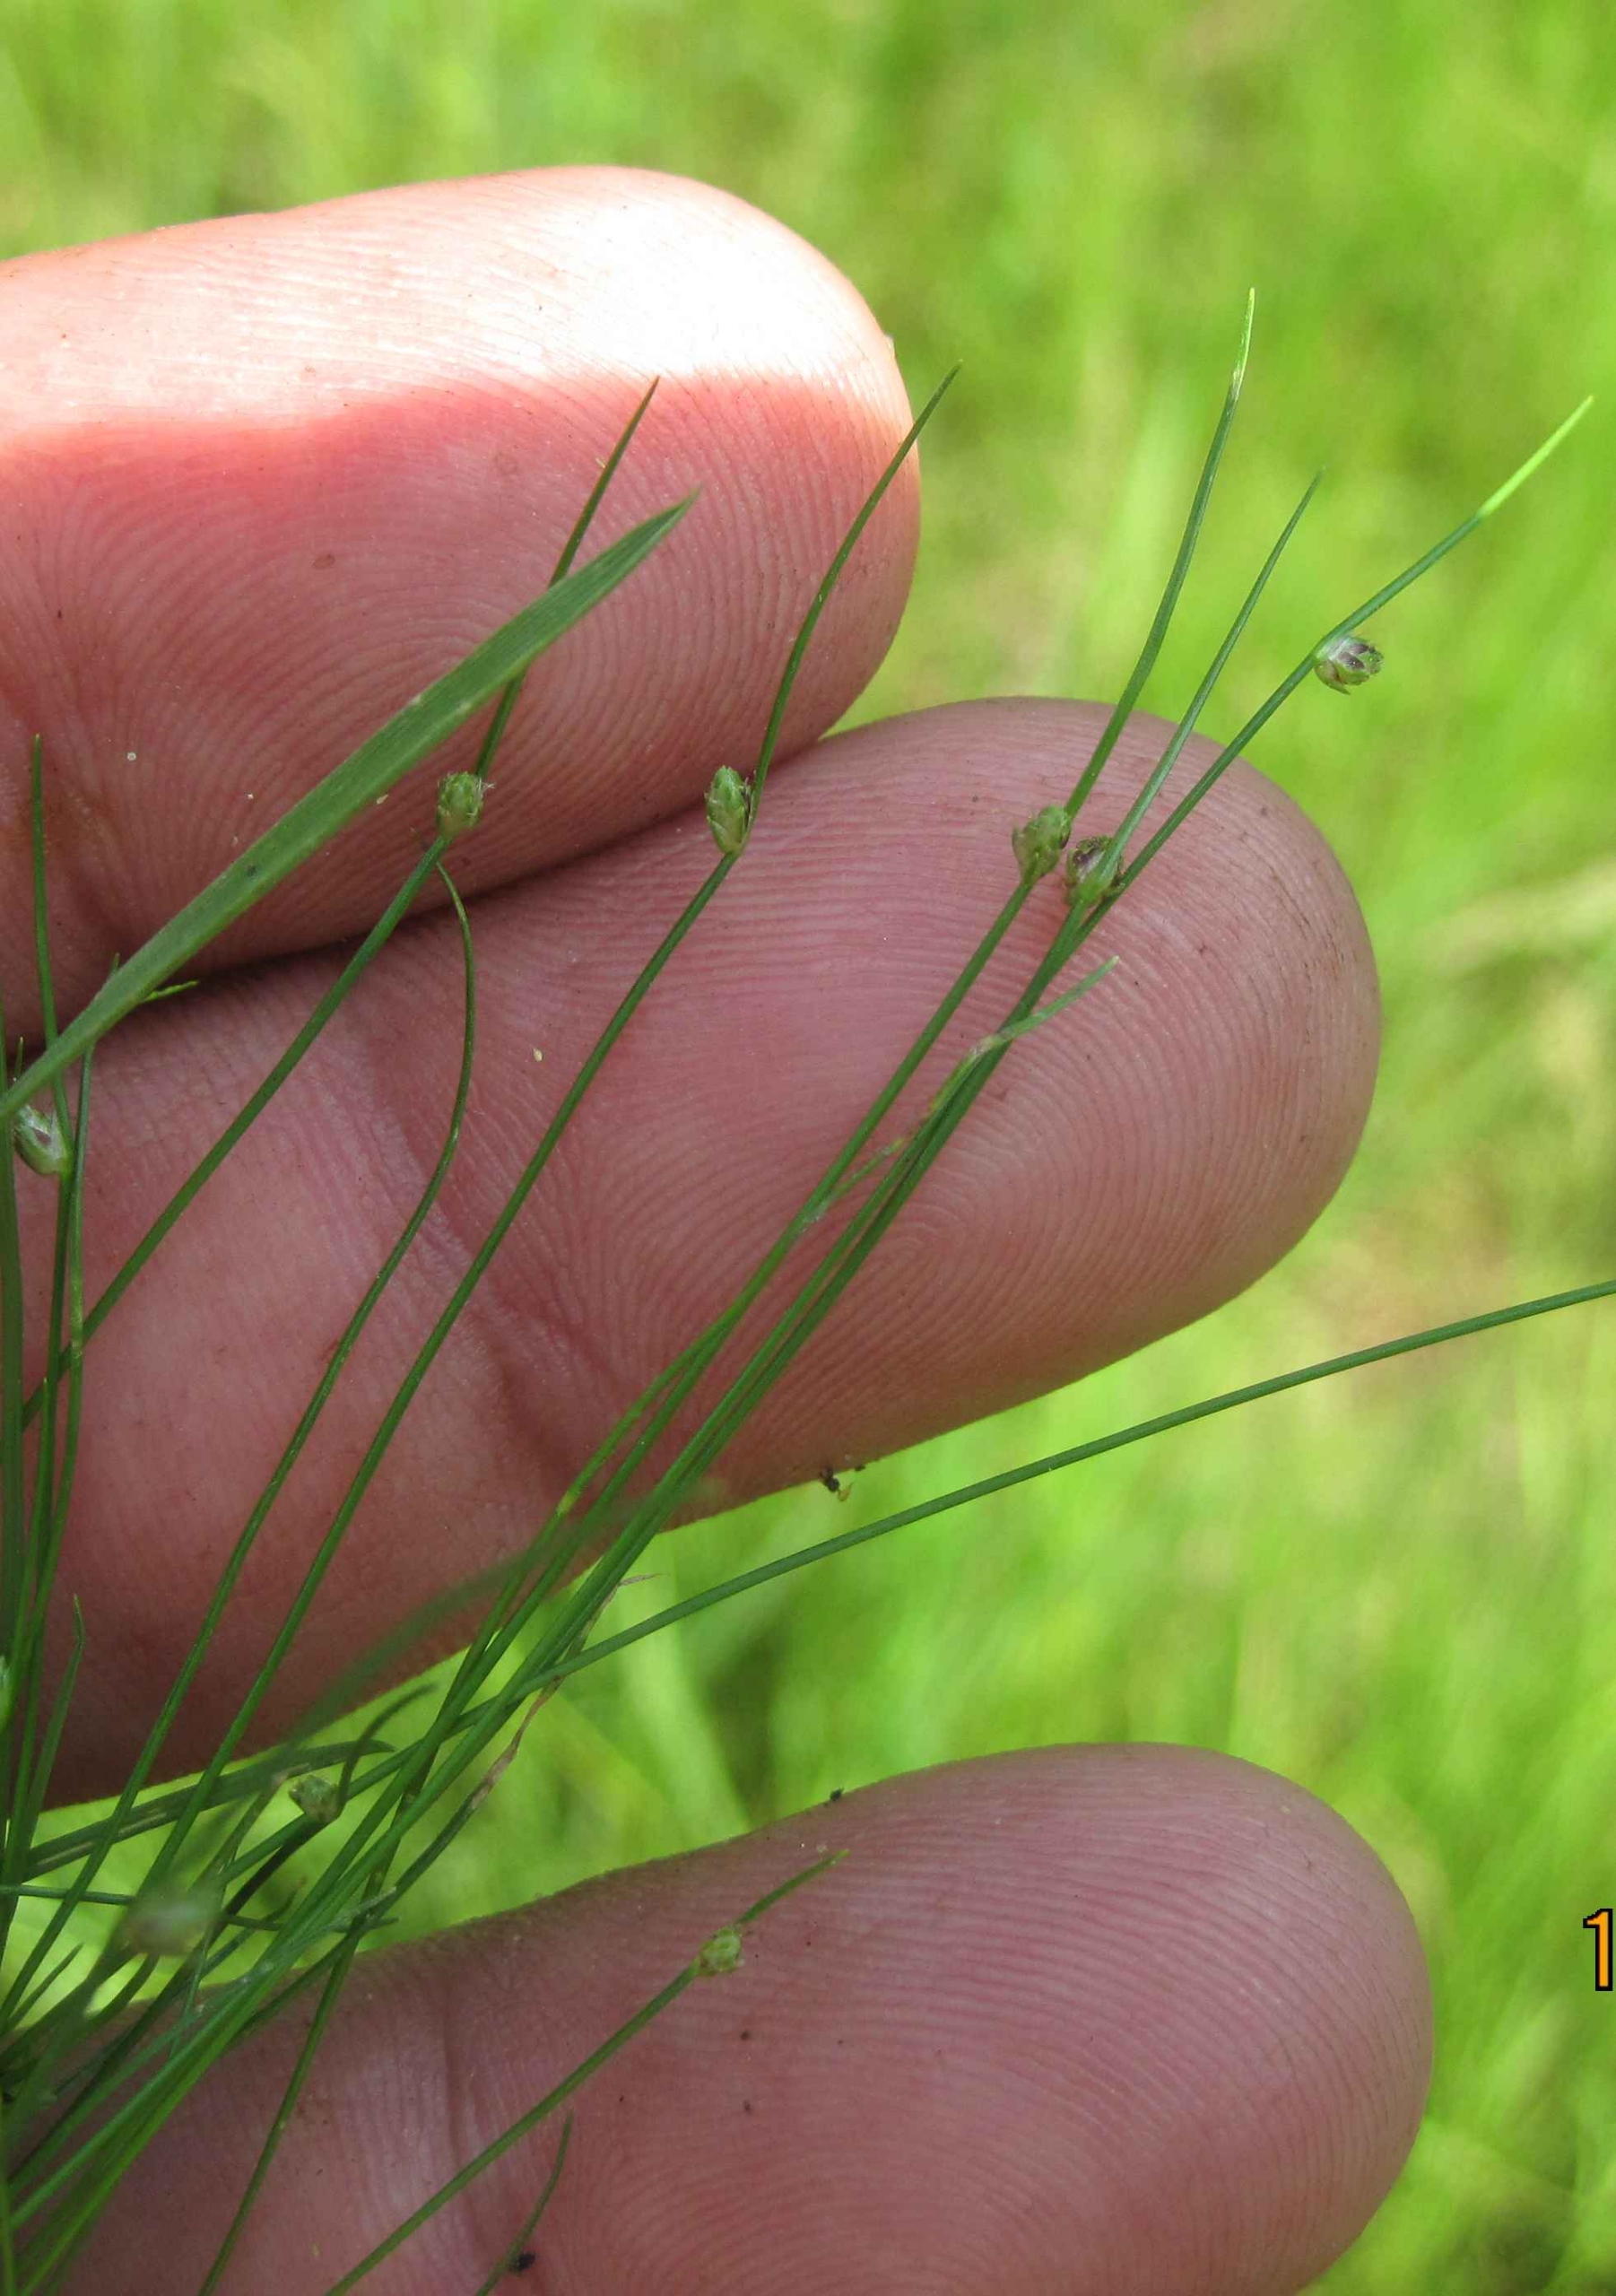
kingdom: Plantae
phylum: Tracheophyta
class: Liliopsida
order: Poales
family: Cyperaceae
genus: Isolepis
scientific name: Isolepis setacea
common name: Børste-kogleaks
